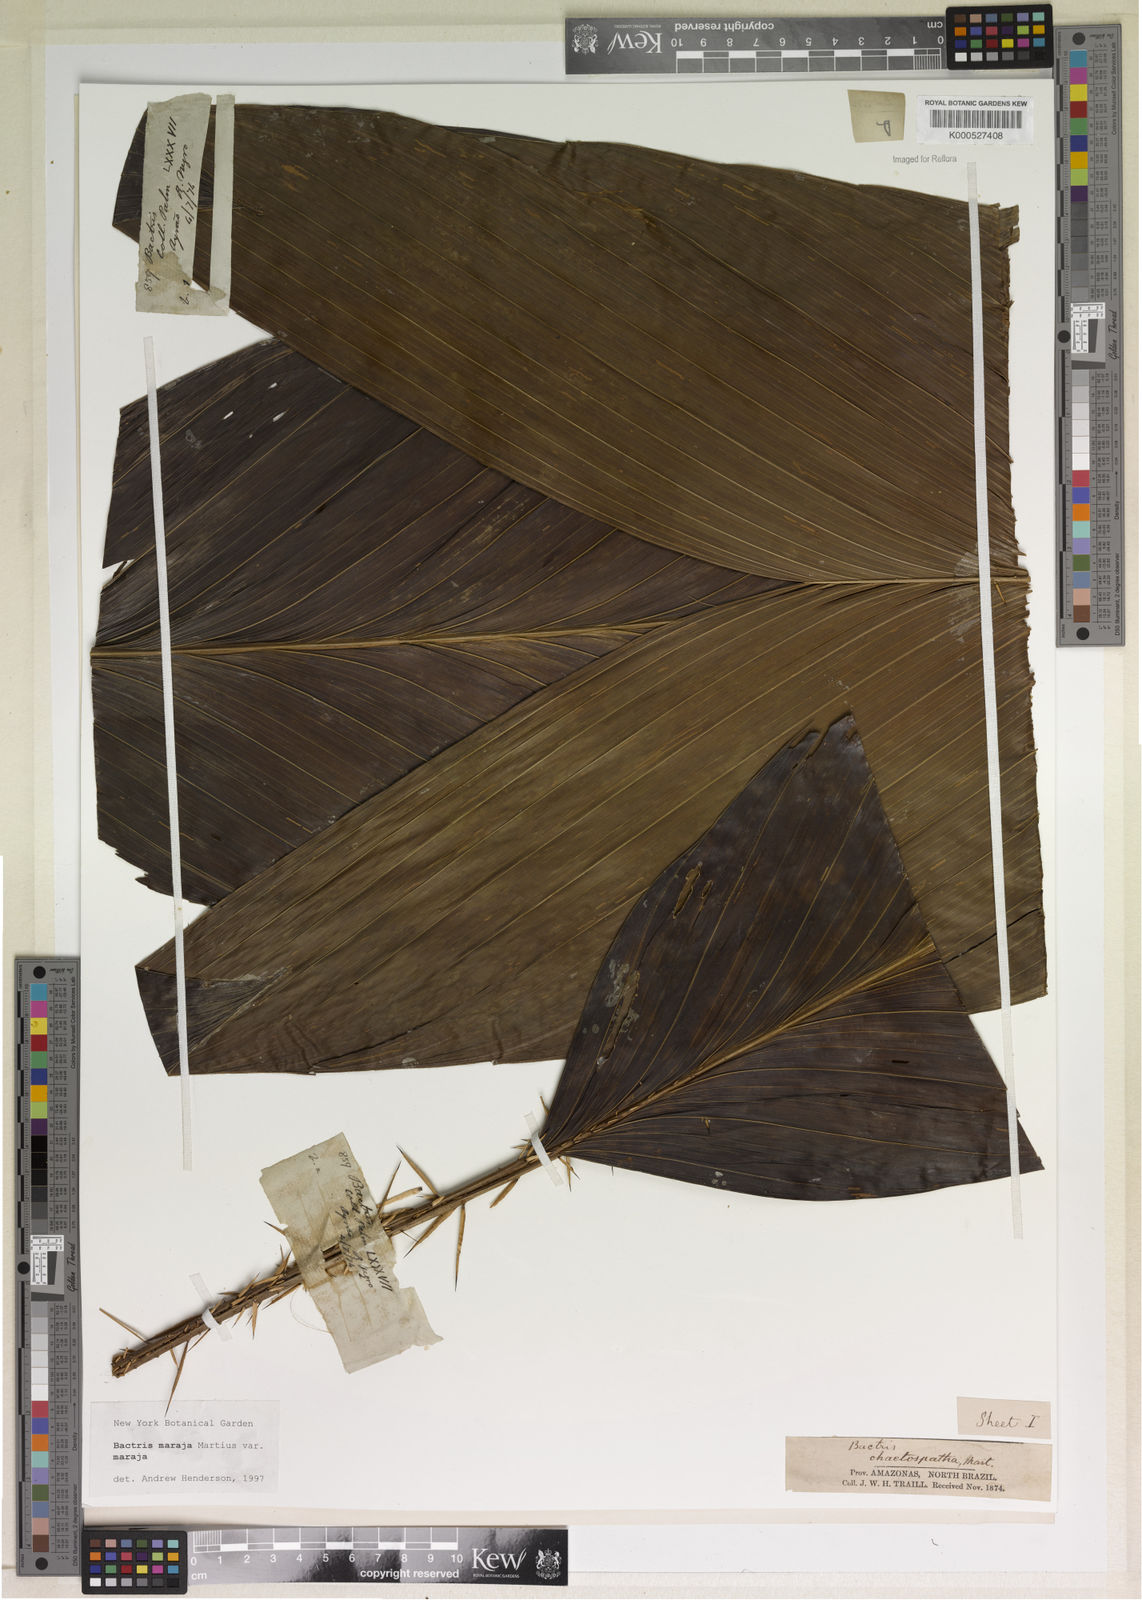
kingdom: Plantae
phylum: Tracheophyta
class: Liliopsida
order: Arecales
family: Arecaceae
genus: Bactris
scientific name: Bactris maraja
